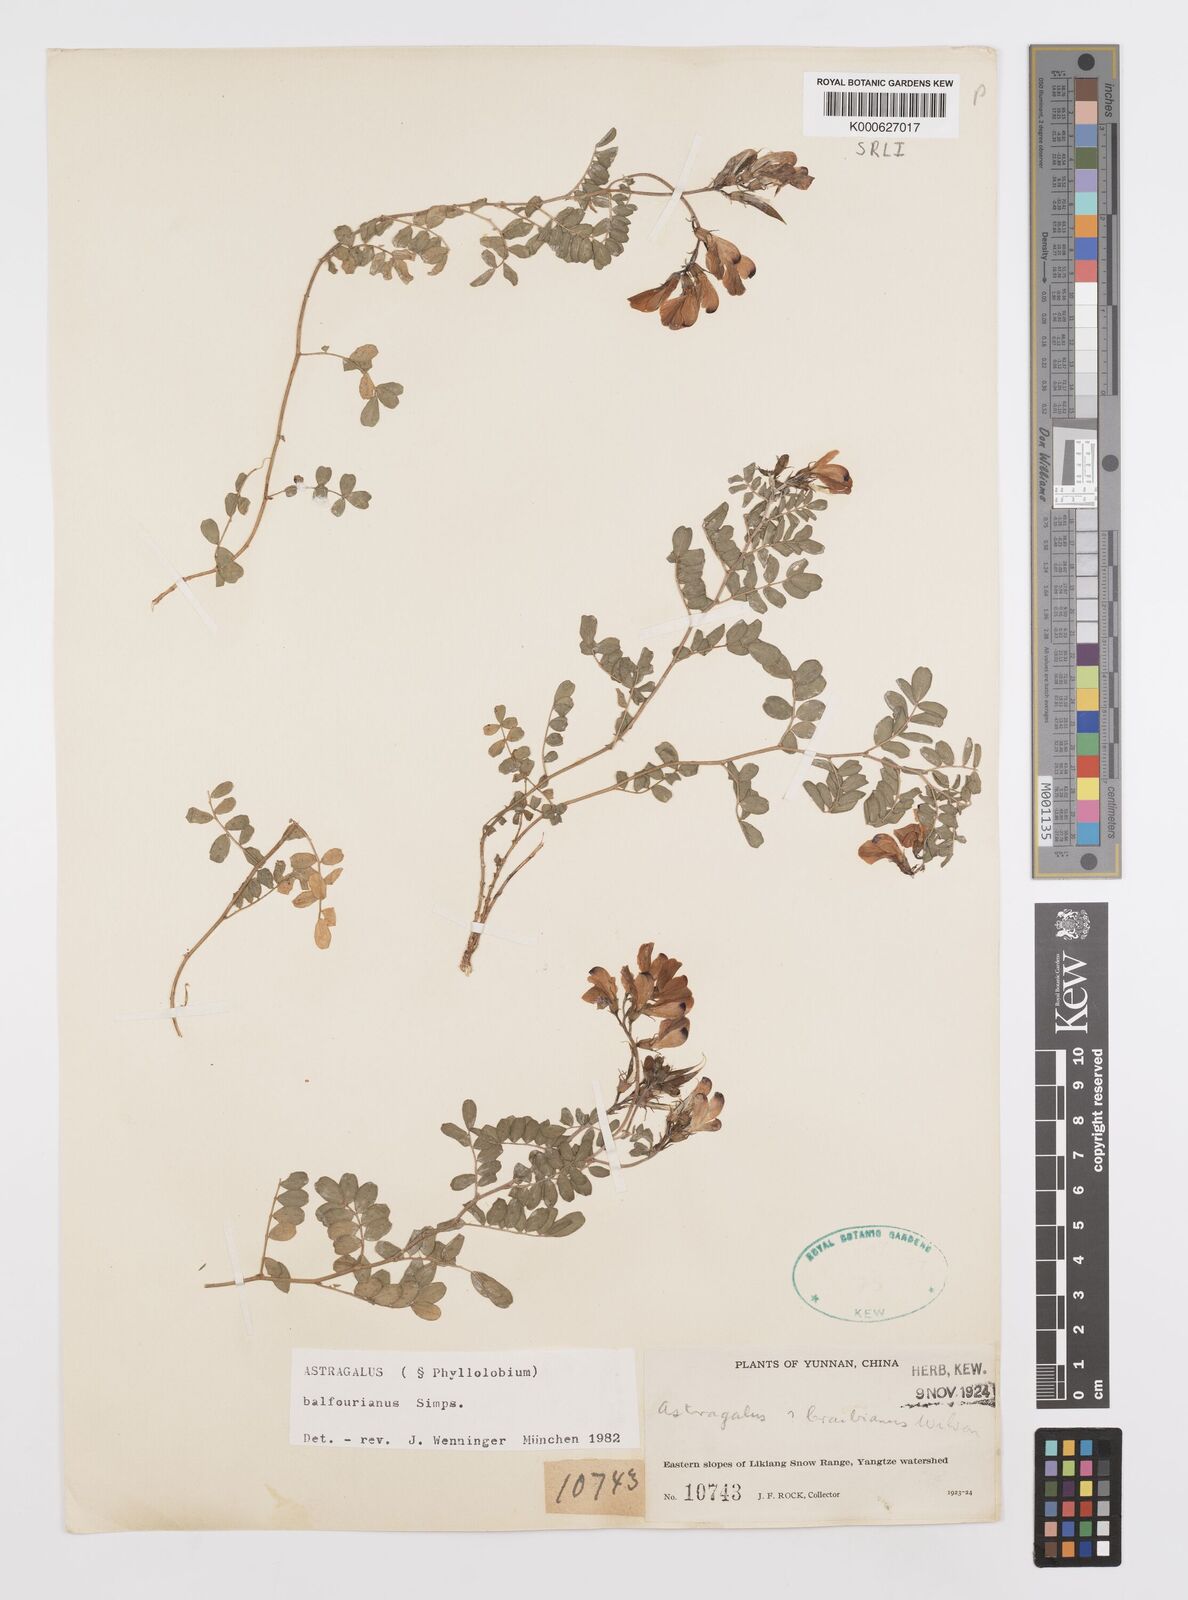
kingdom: Plantae
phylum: Tracheophyta
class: Magnoliopsida
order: Fabales
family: Fabaceae
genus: Phyllolobium
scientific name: Phyllolobium balfourianum
